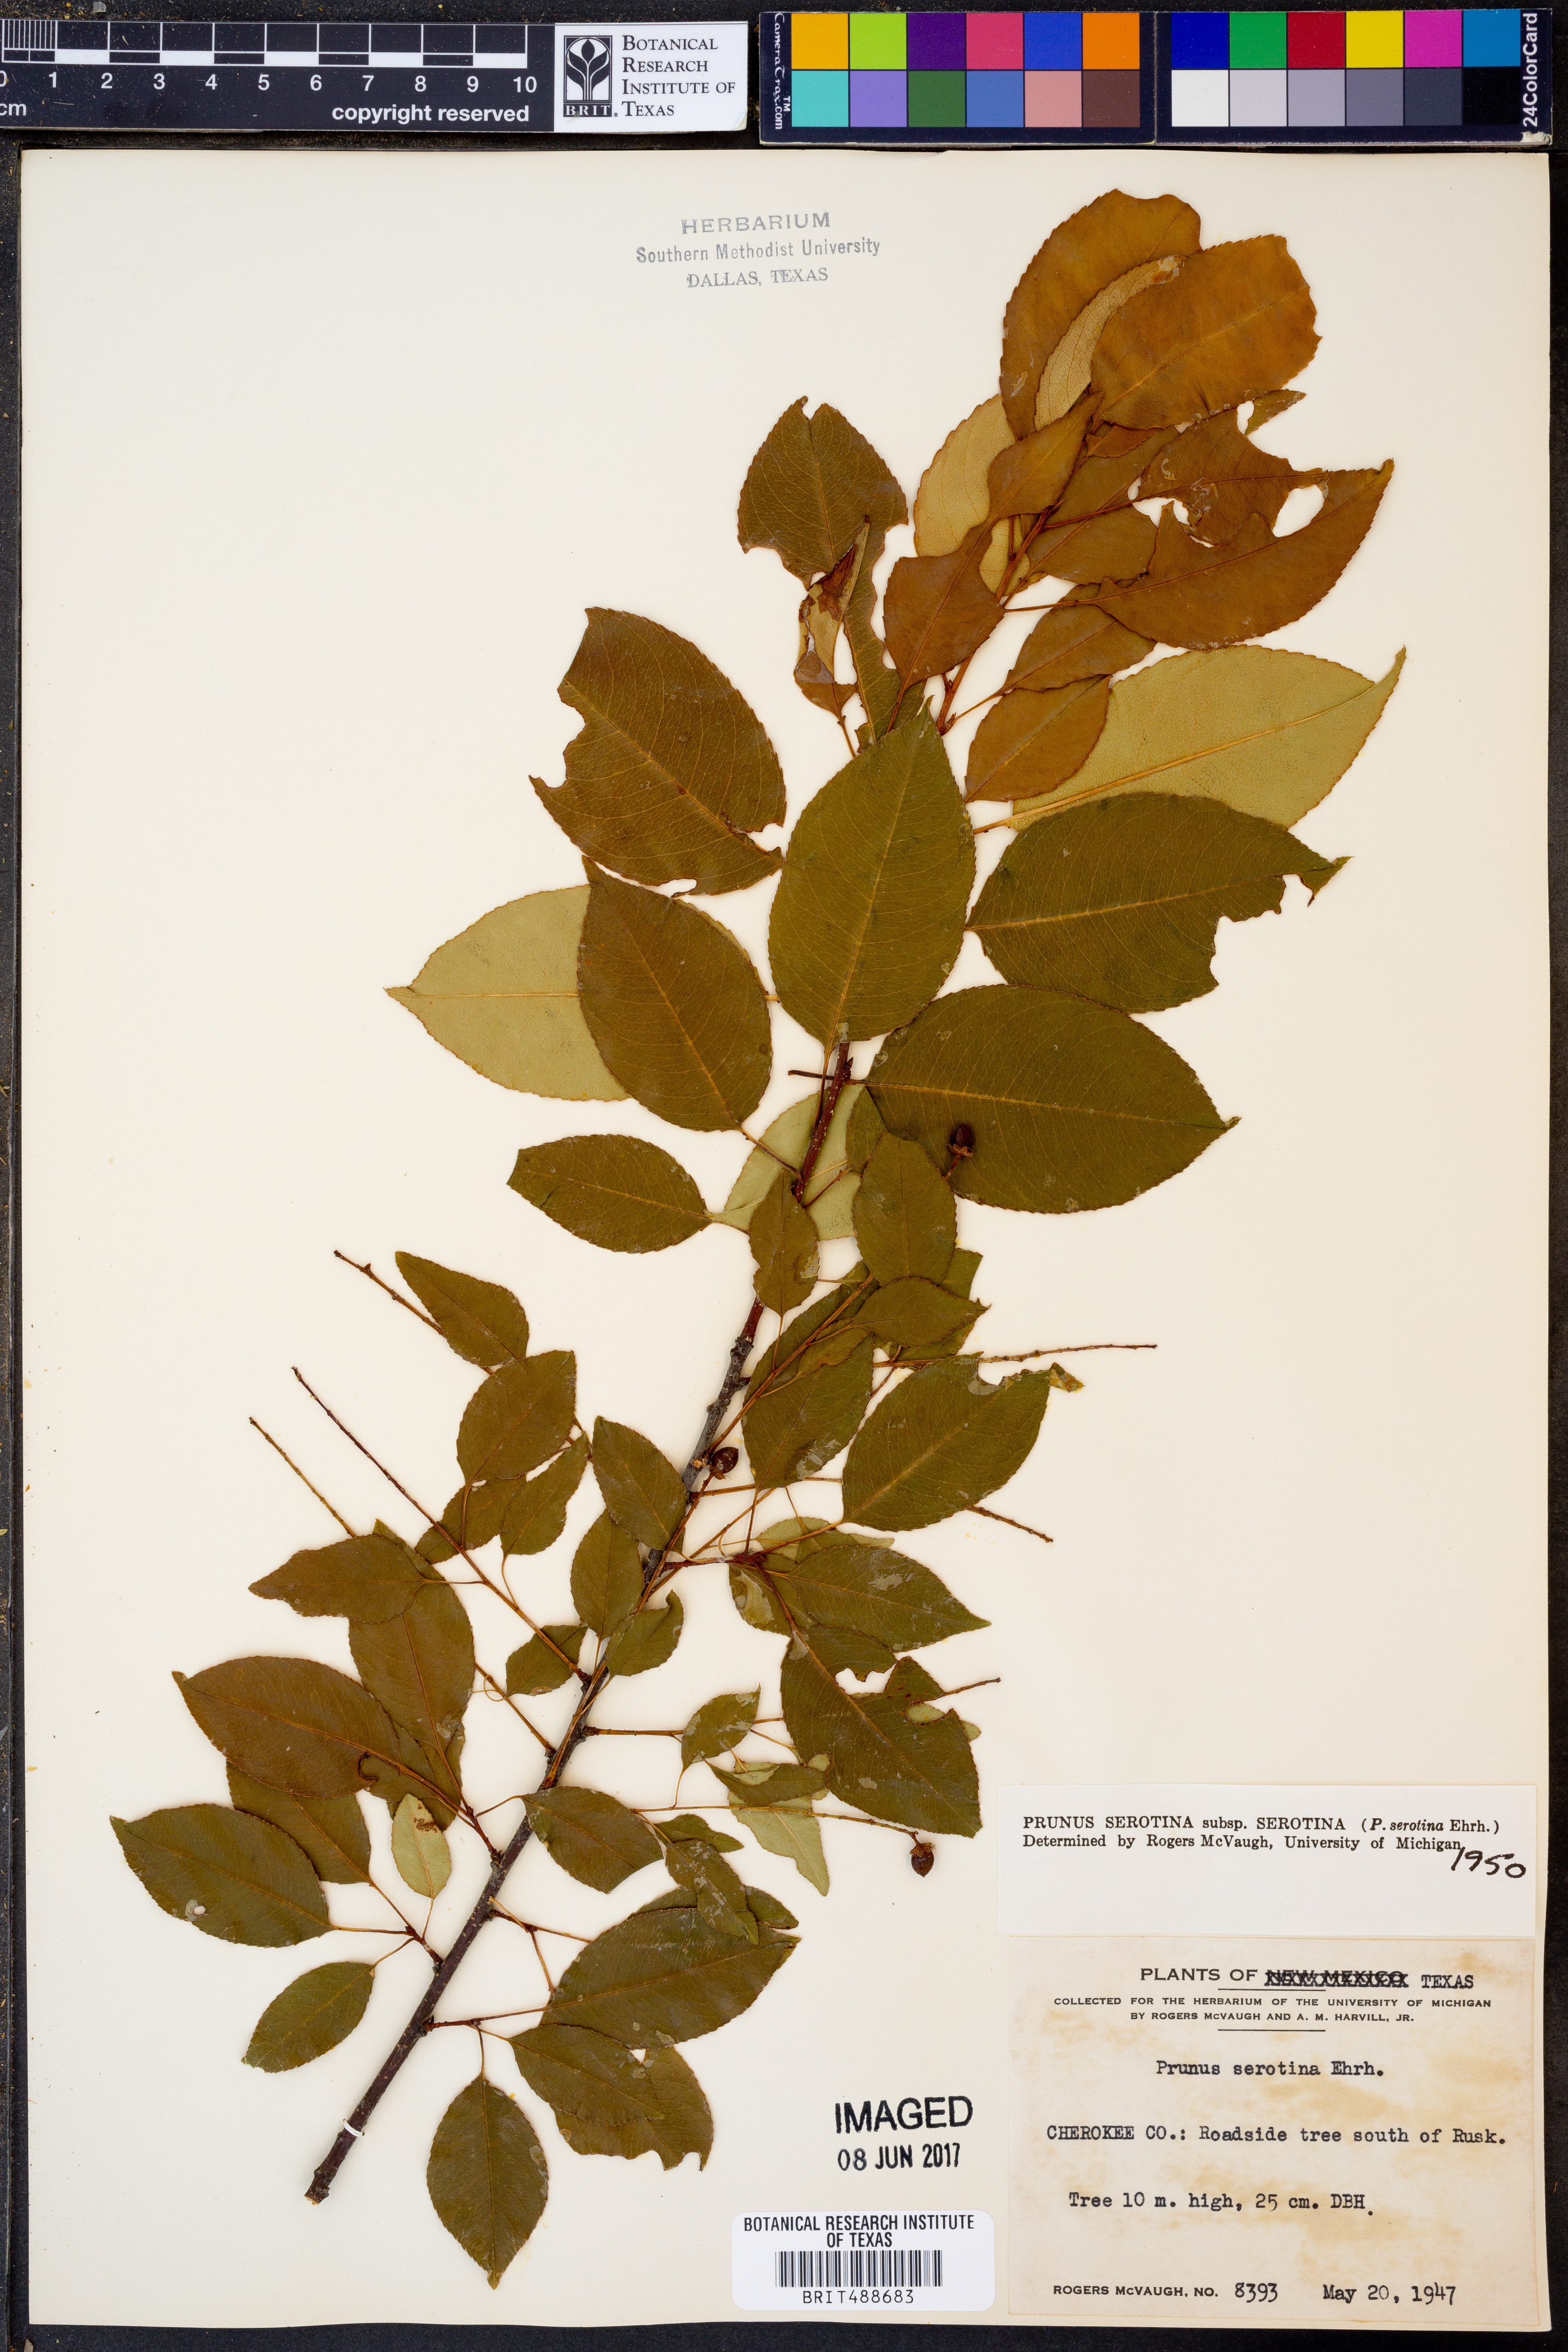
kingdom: Plantae
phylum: Tracheophyta
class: Magnoliopsida
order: Rosales
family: Rosaceae
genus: Prunus
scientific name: Prunus serotina
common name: Black cherry
